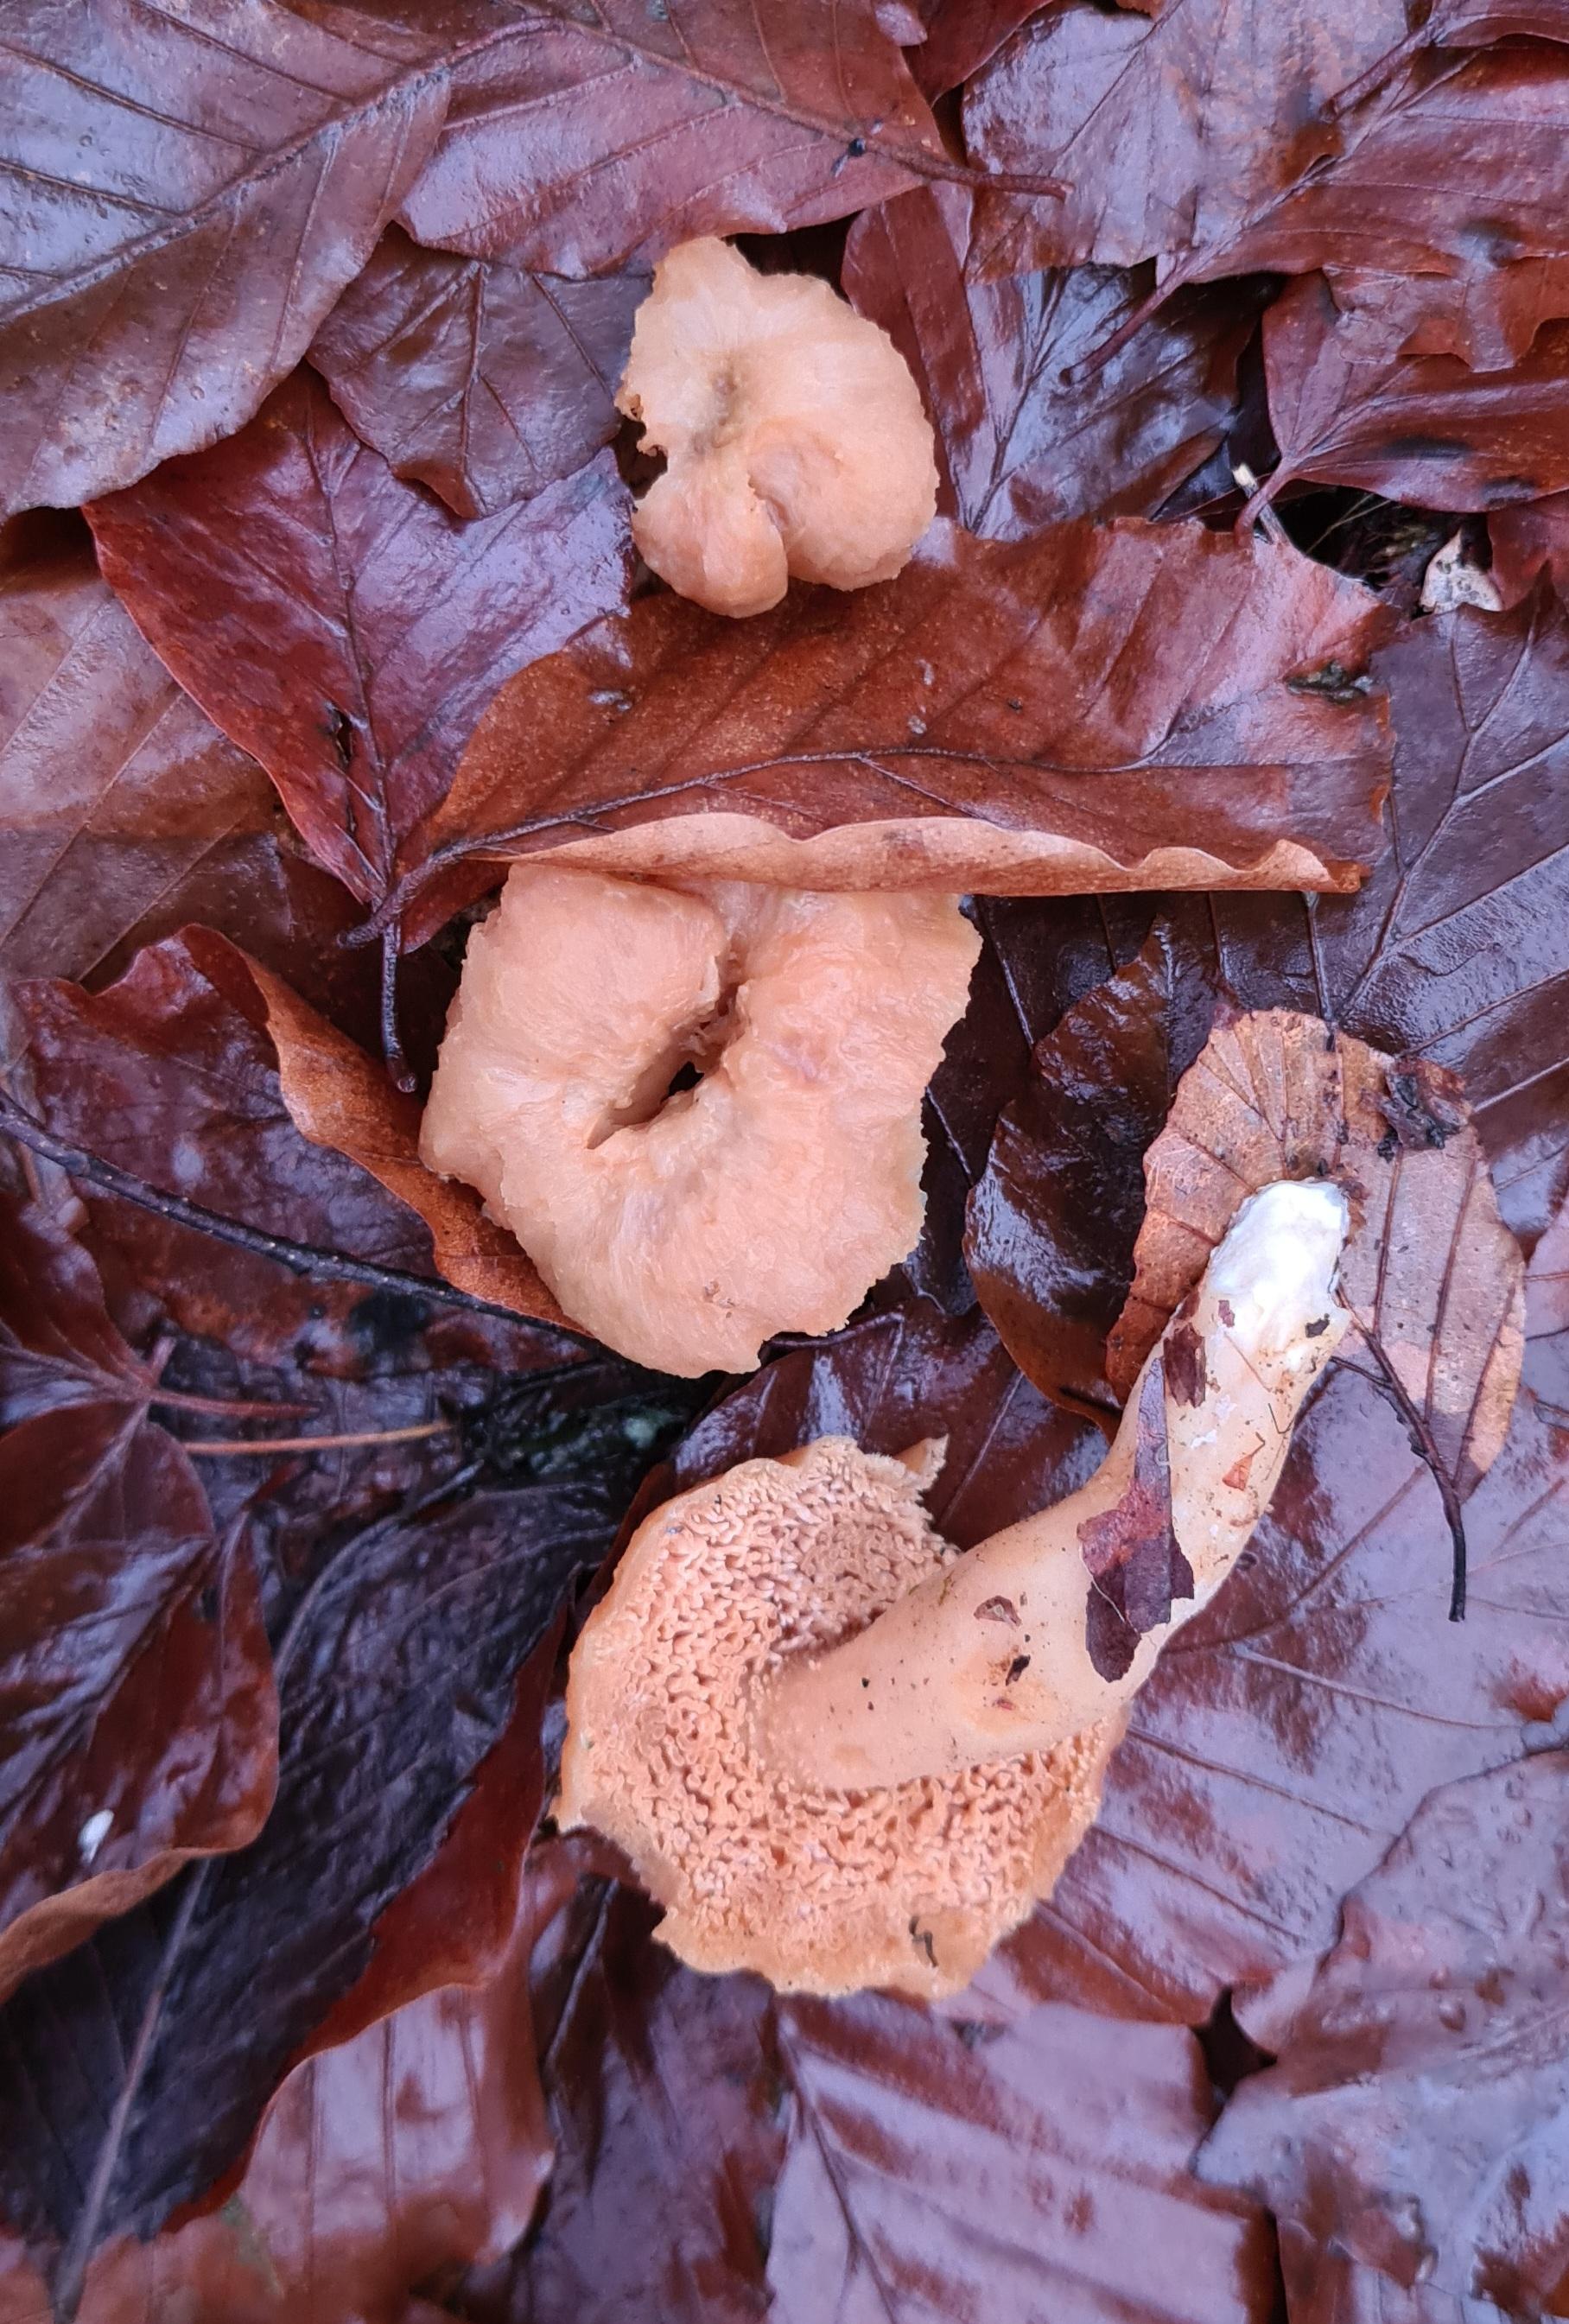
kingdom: Fungi
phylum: Basidiomycota
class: Agaricomycetes
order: Cantharellales
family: Hydnaceae
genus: Hydnum
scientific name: Hydnum
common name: pigsvamp
